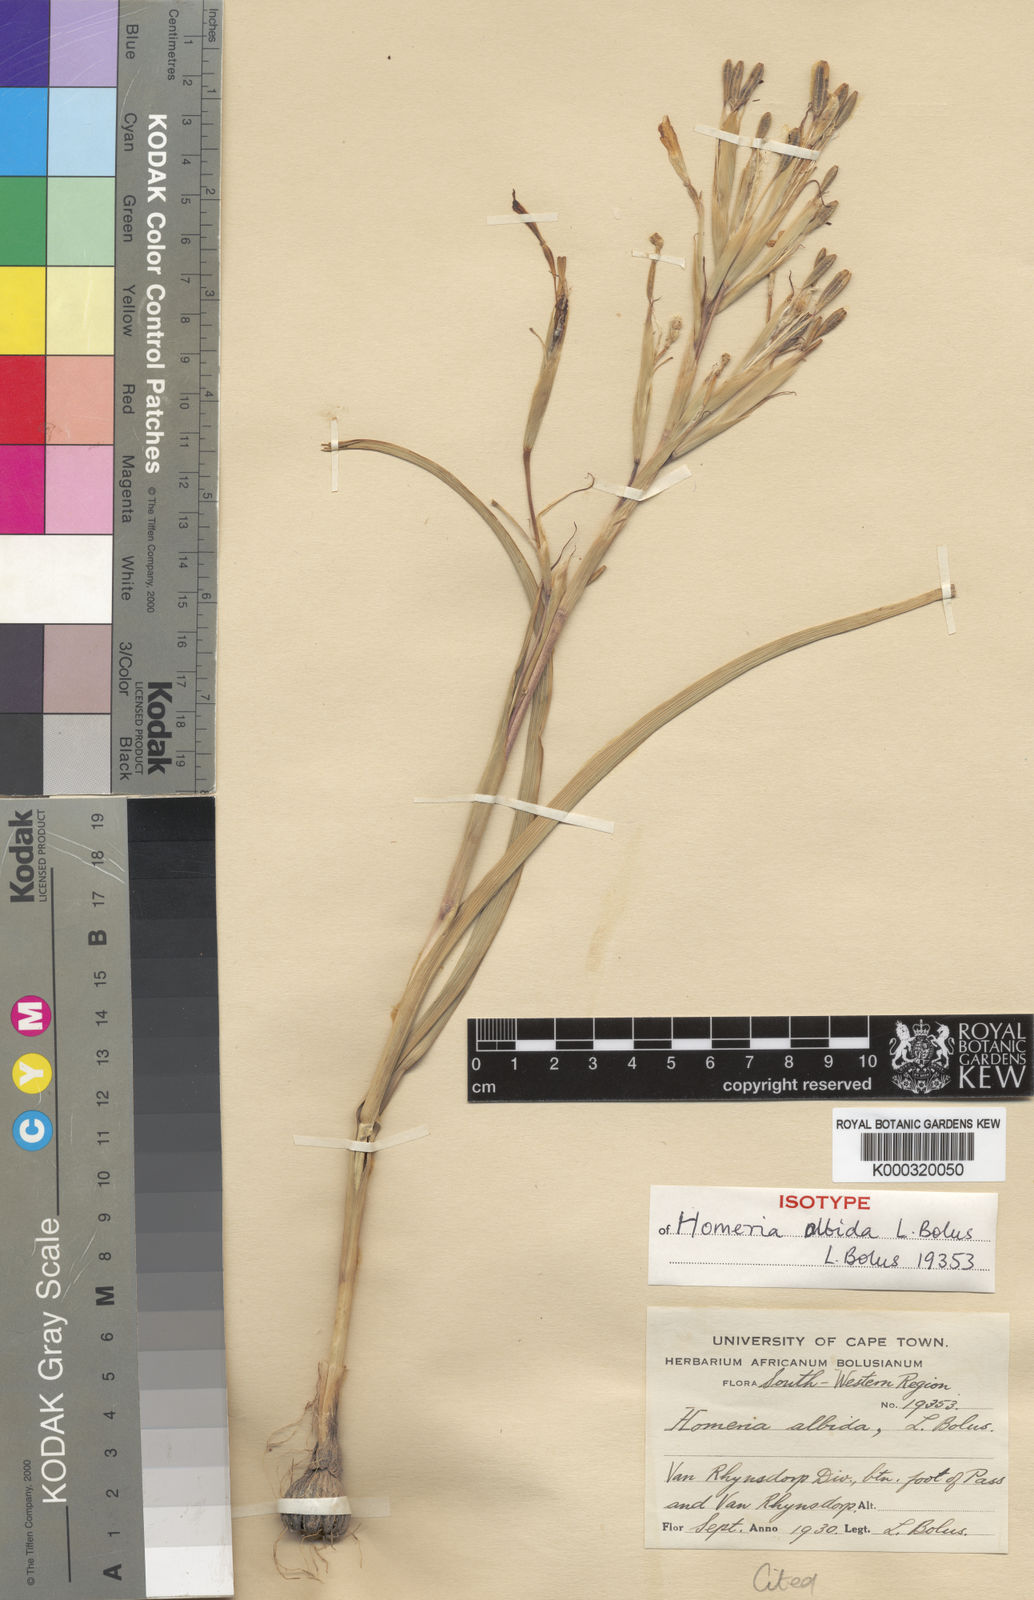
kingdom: Plantae
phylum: Tracheophyta
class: Liliopsida
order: Asparagales
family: Iridaceae
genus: Moraea
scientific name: Moraea miniata
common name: Two-leaf cape-tulip
